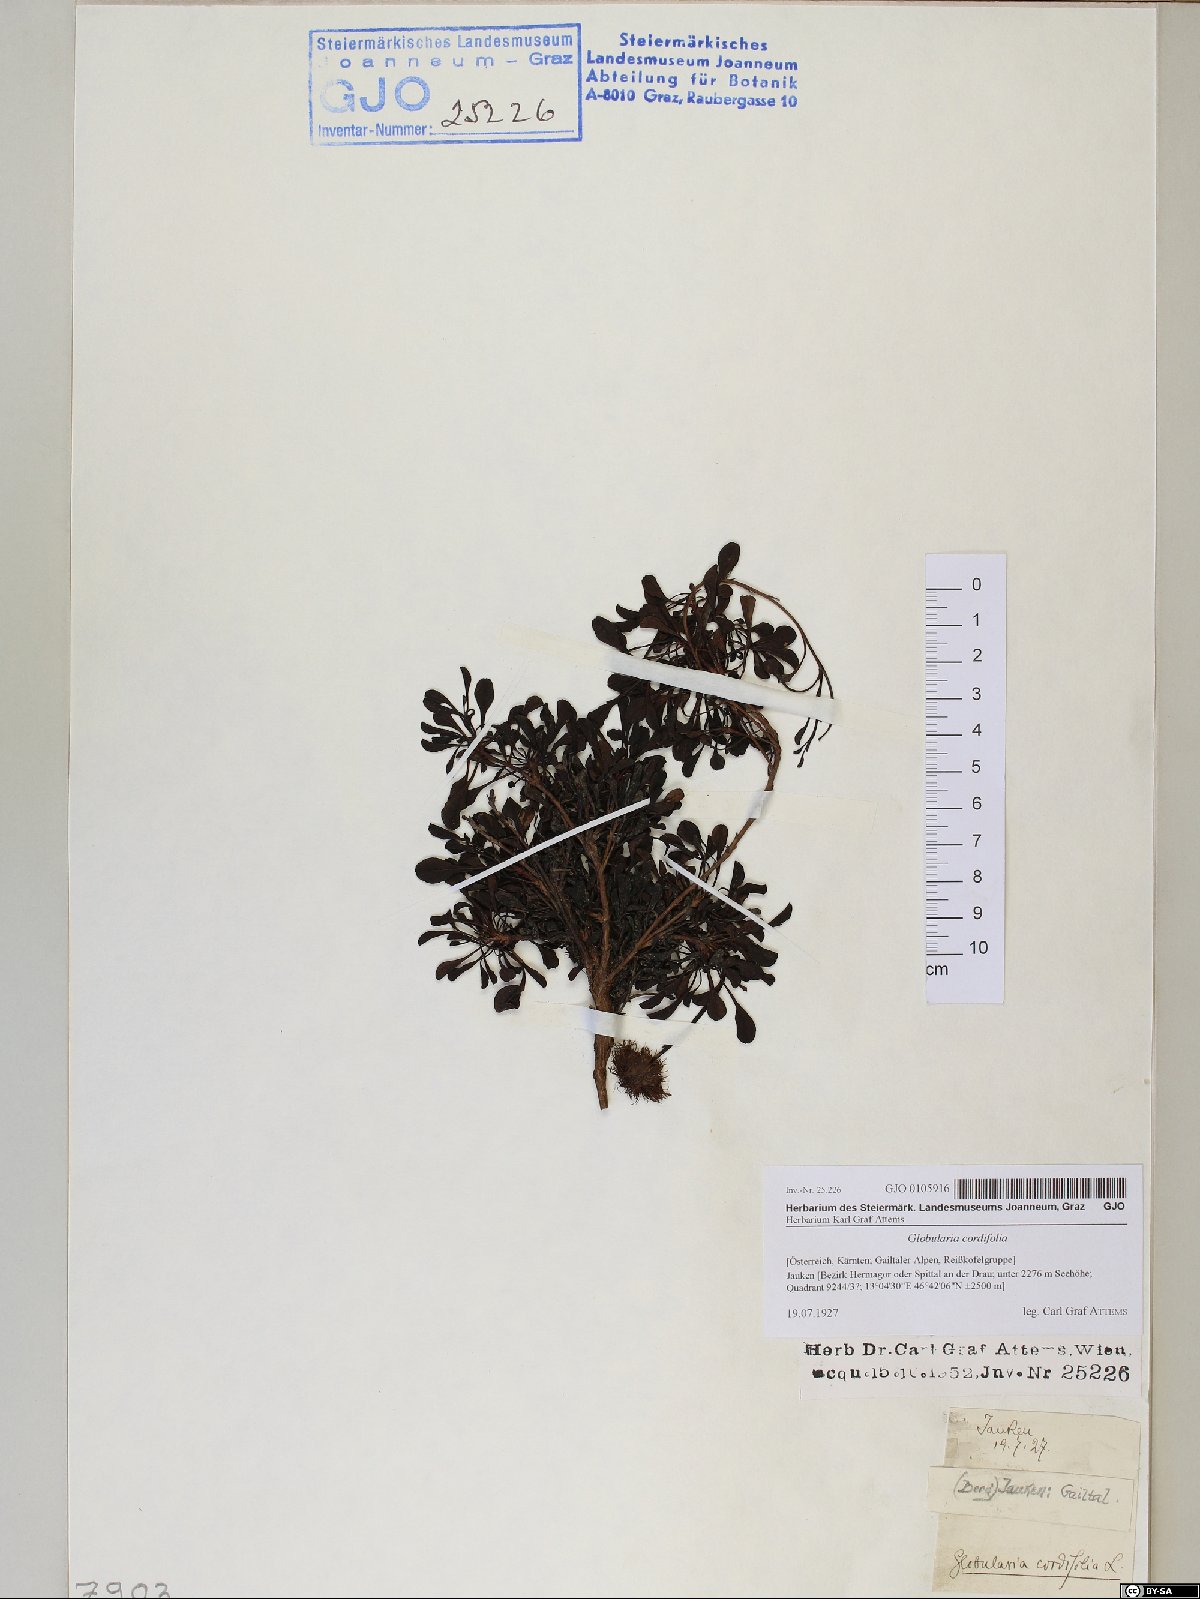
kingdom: Plantae
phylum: Tracheophyta
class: Magnoliopsida
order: Lamiales
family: Plantaginaceae
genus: Globularia
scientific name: Globularia cordifolia
